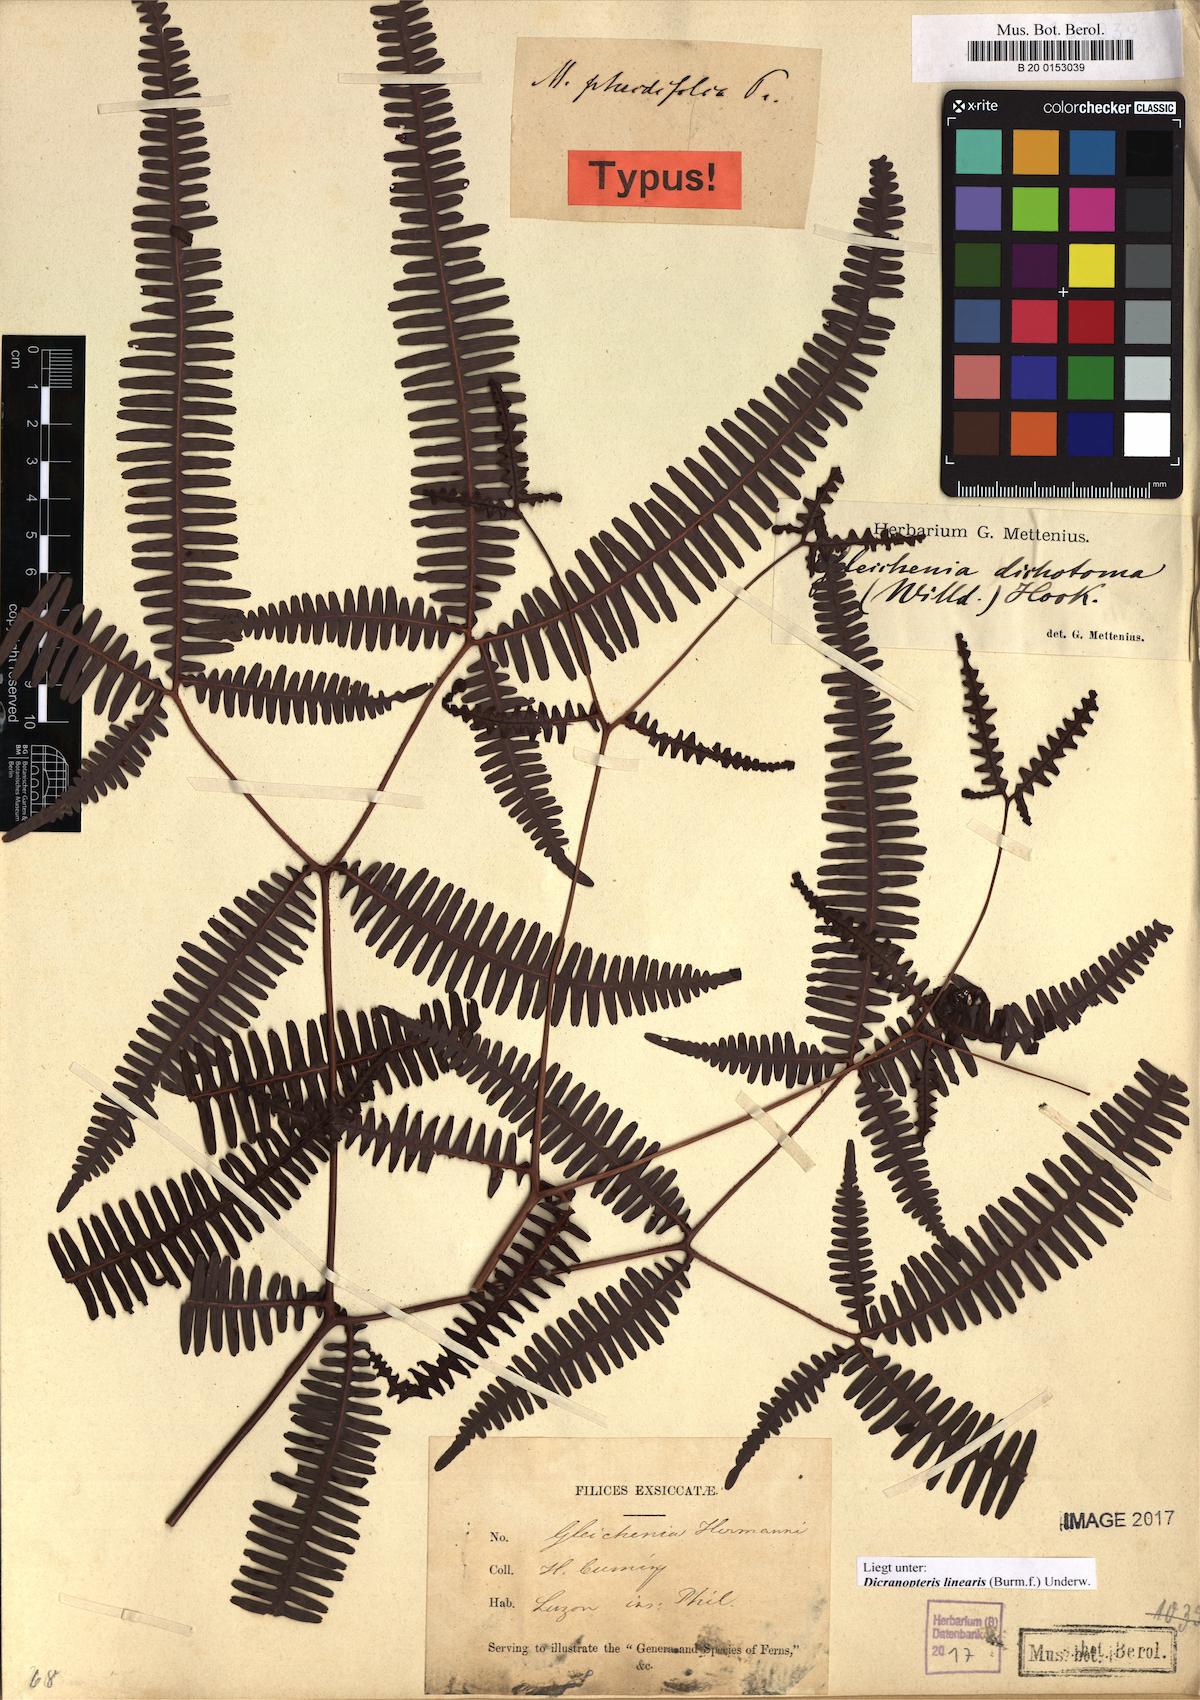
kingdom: Plantae
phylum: Tracheophyta
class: Polypodiopsida
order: Gleicheniales
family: Gleicheniaceae
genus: Dicranopteris
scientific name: Dicranopteris linearis
